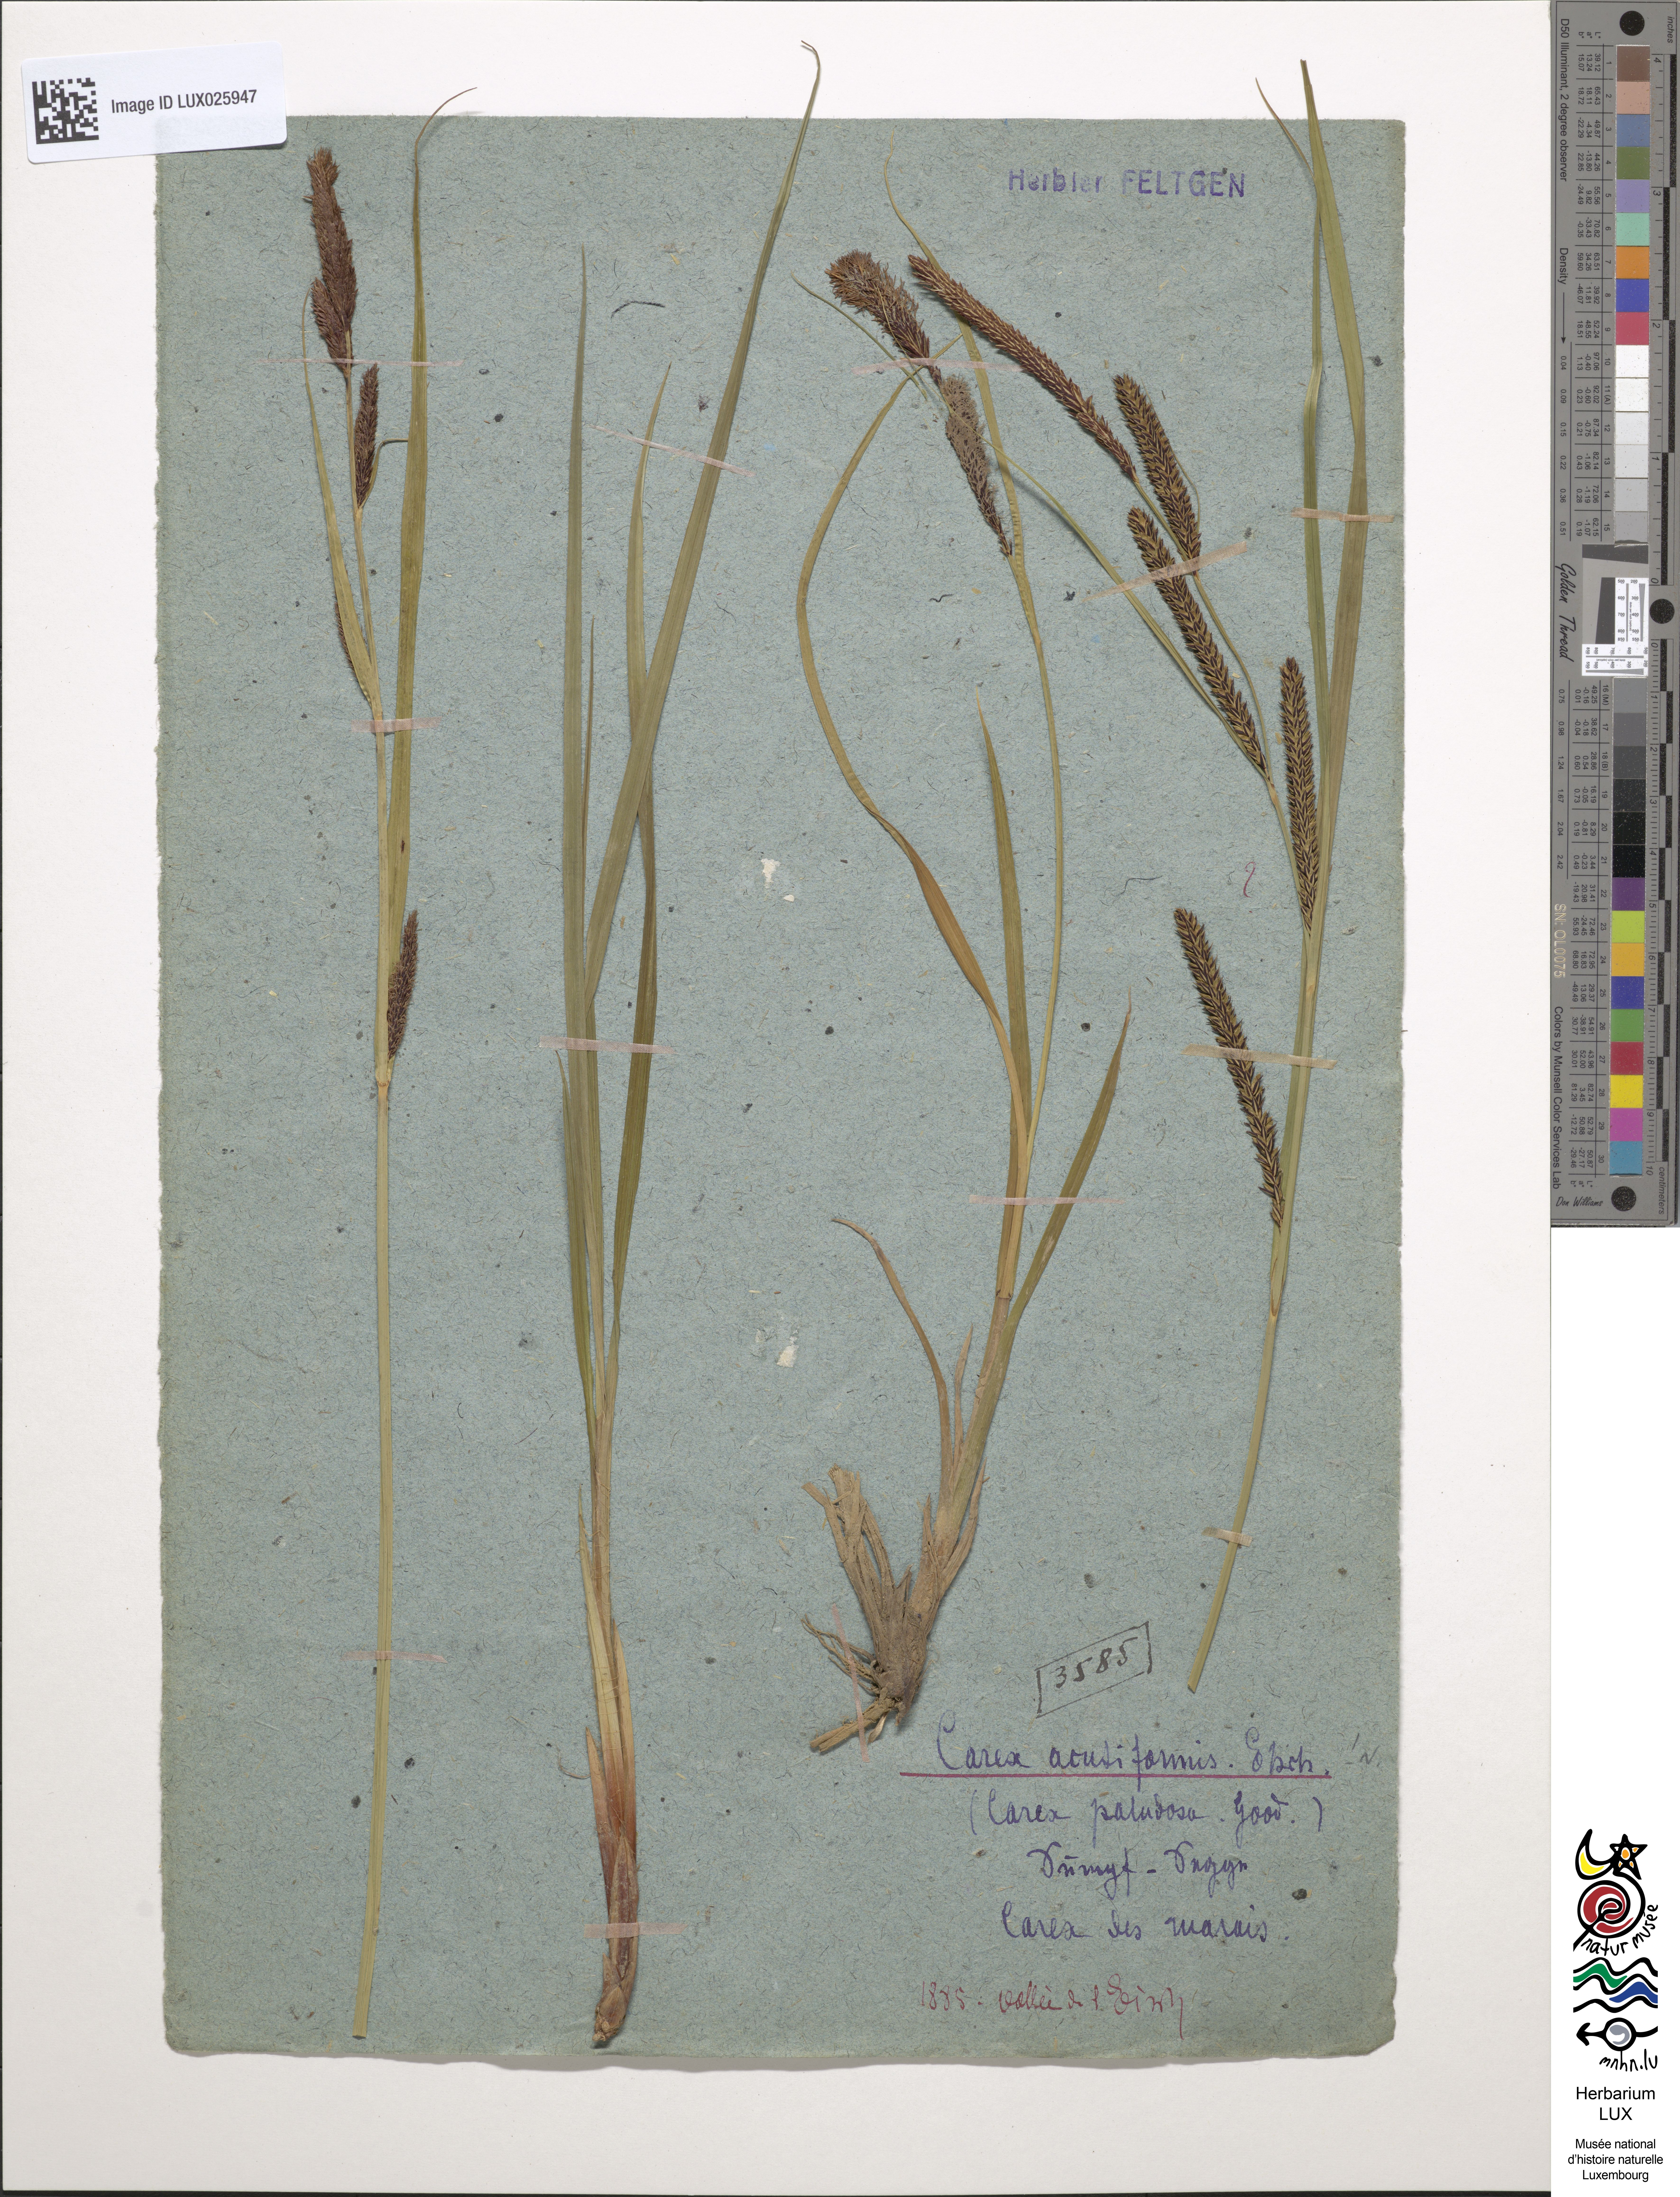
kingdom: Plantae
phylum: Tracheophyta
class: Liliopsida
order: Poales
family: Cyperaceae
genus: Carex
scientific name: Carex acutiformis
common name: Lesser pond-sedge
